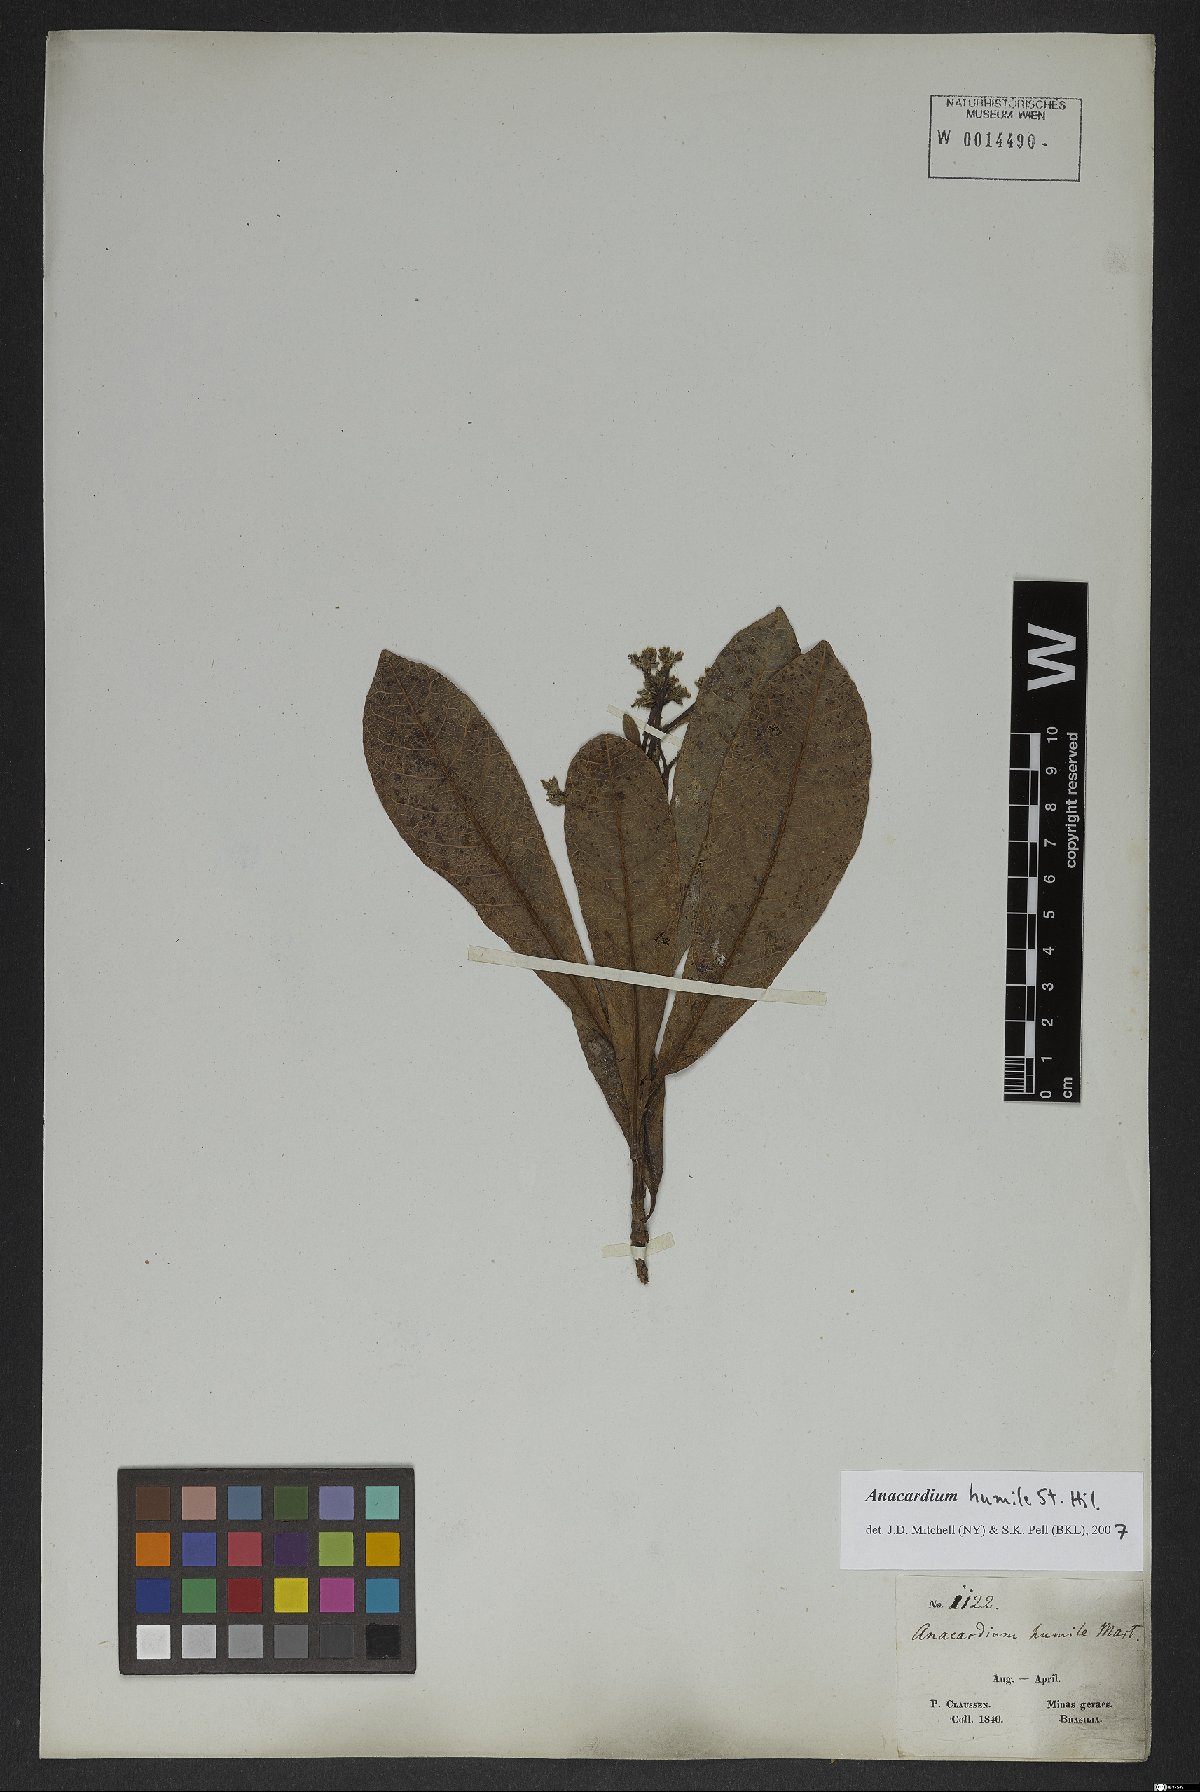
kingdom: Plantae
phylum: Tracheophyta
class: Magnoliopsida
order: Sapindales
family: Anacardiaceae
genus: Anacardium
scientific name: Anacardium humile
